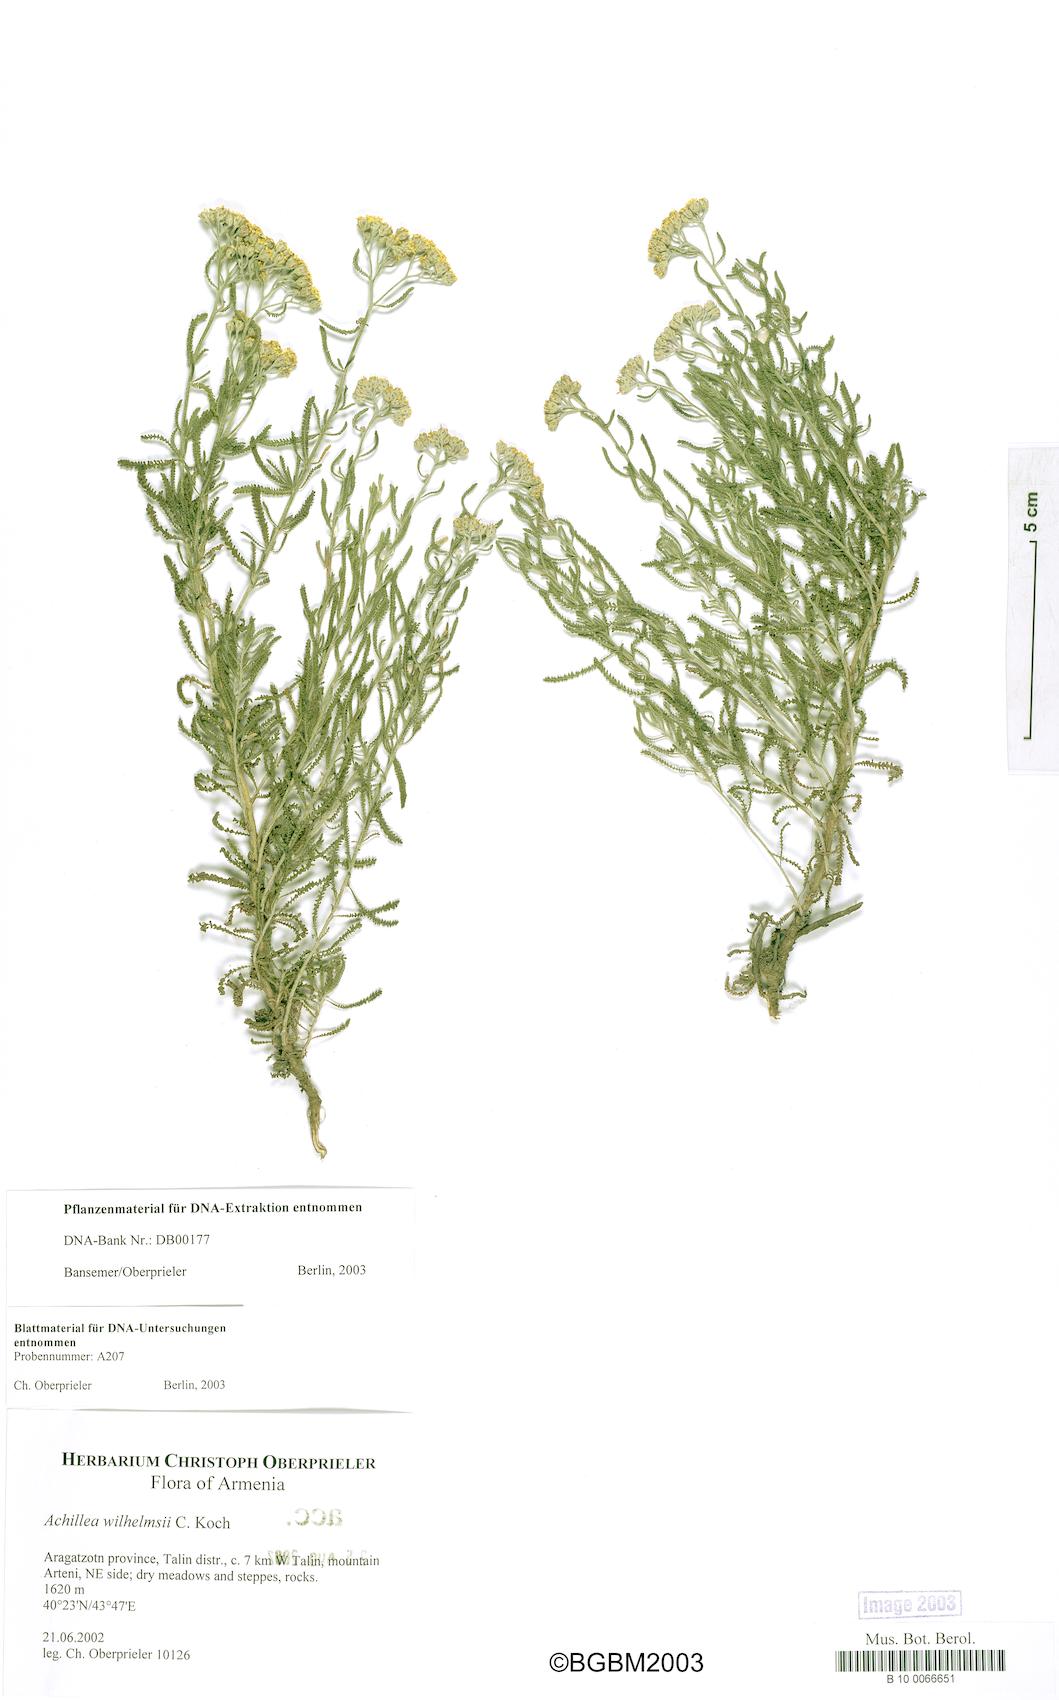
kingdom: Plantae
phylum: Tracheophyta
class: Magnoliopsida
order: Asterales
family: Asteraceae
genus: Achillea
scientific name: Achillea wilhelmsii
